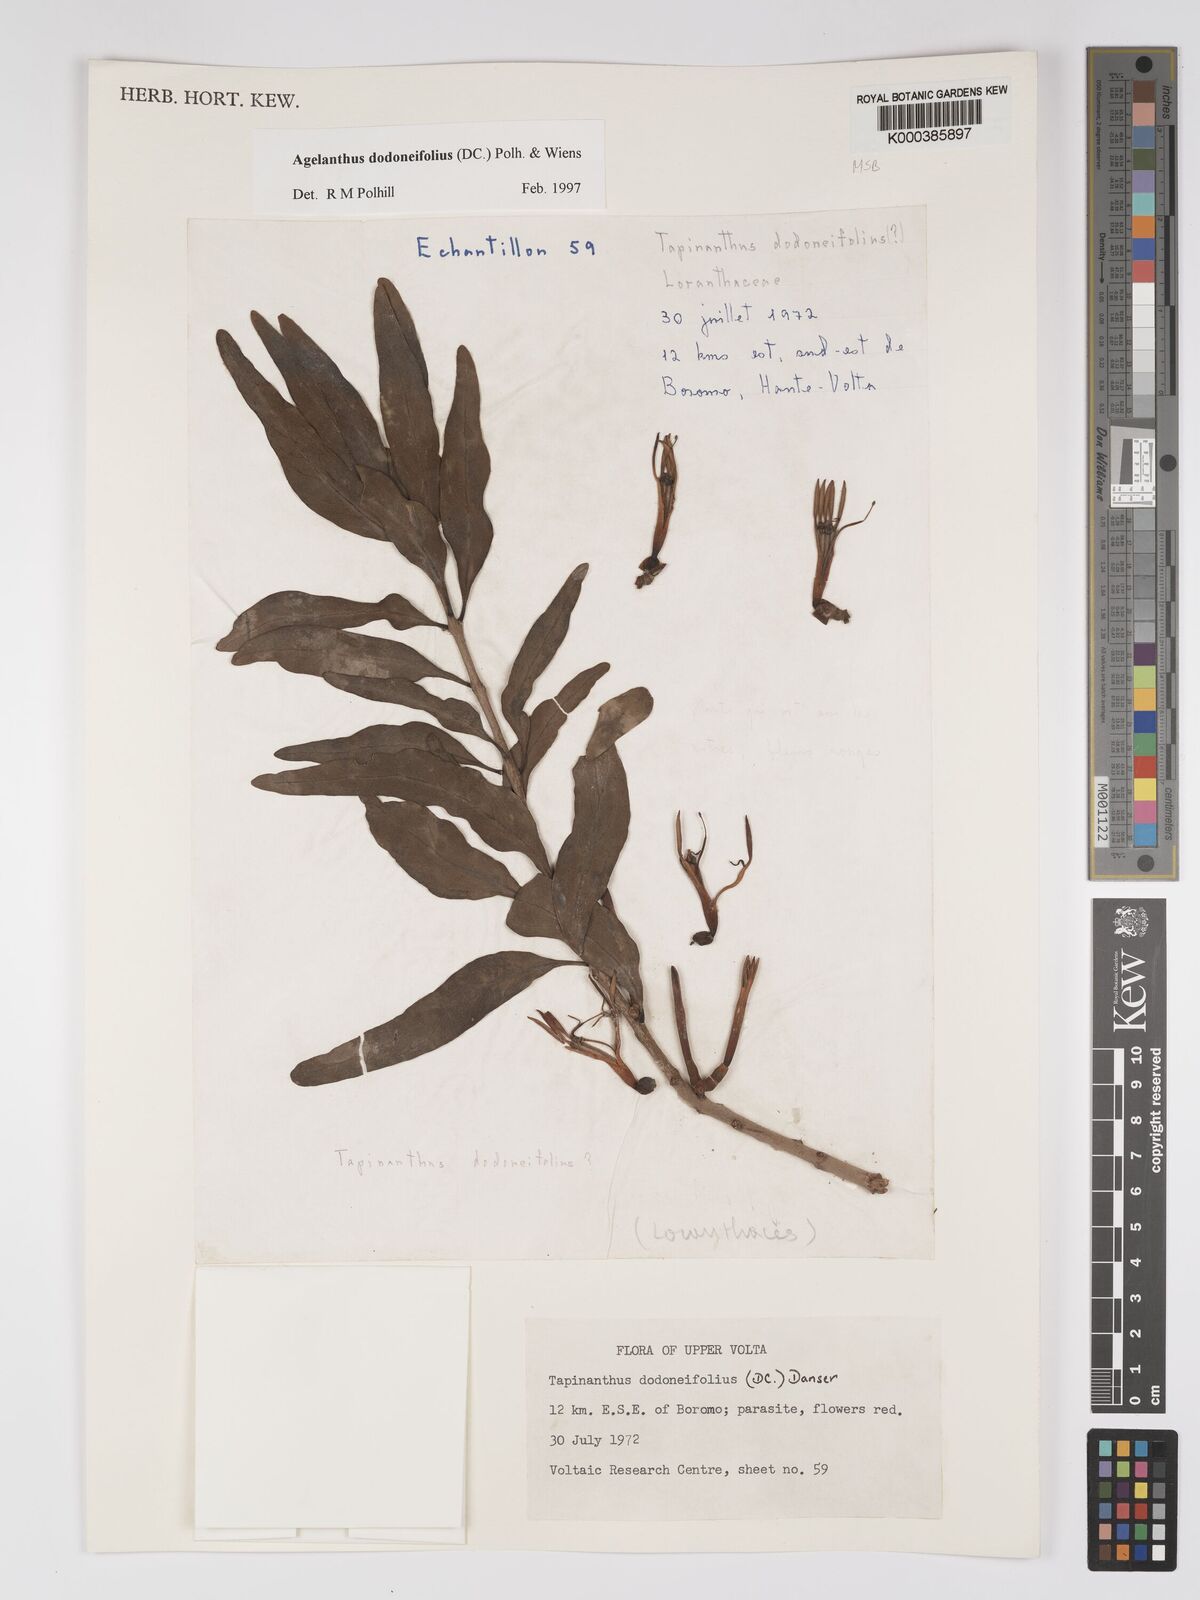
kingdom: Plantae
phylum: Tracheophyta
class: Magnoliopsida
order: Santalales
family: Loranthaceae
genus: Agelanthus
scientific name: Agelanthus dodoneifolius
